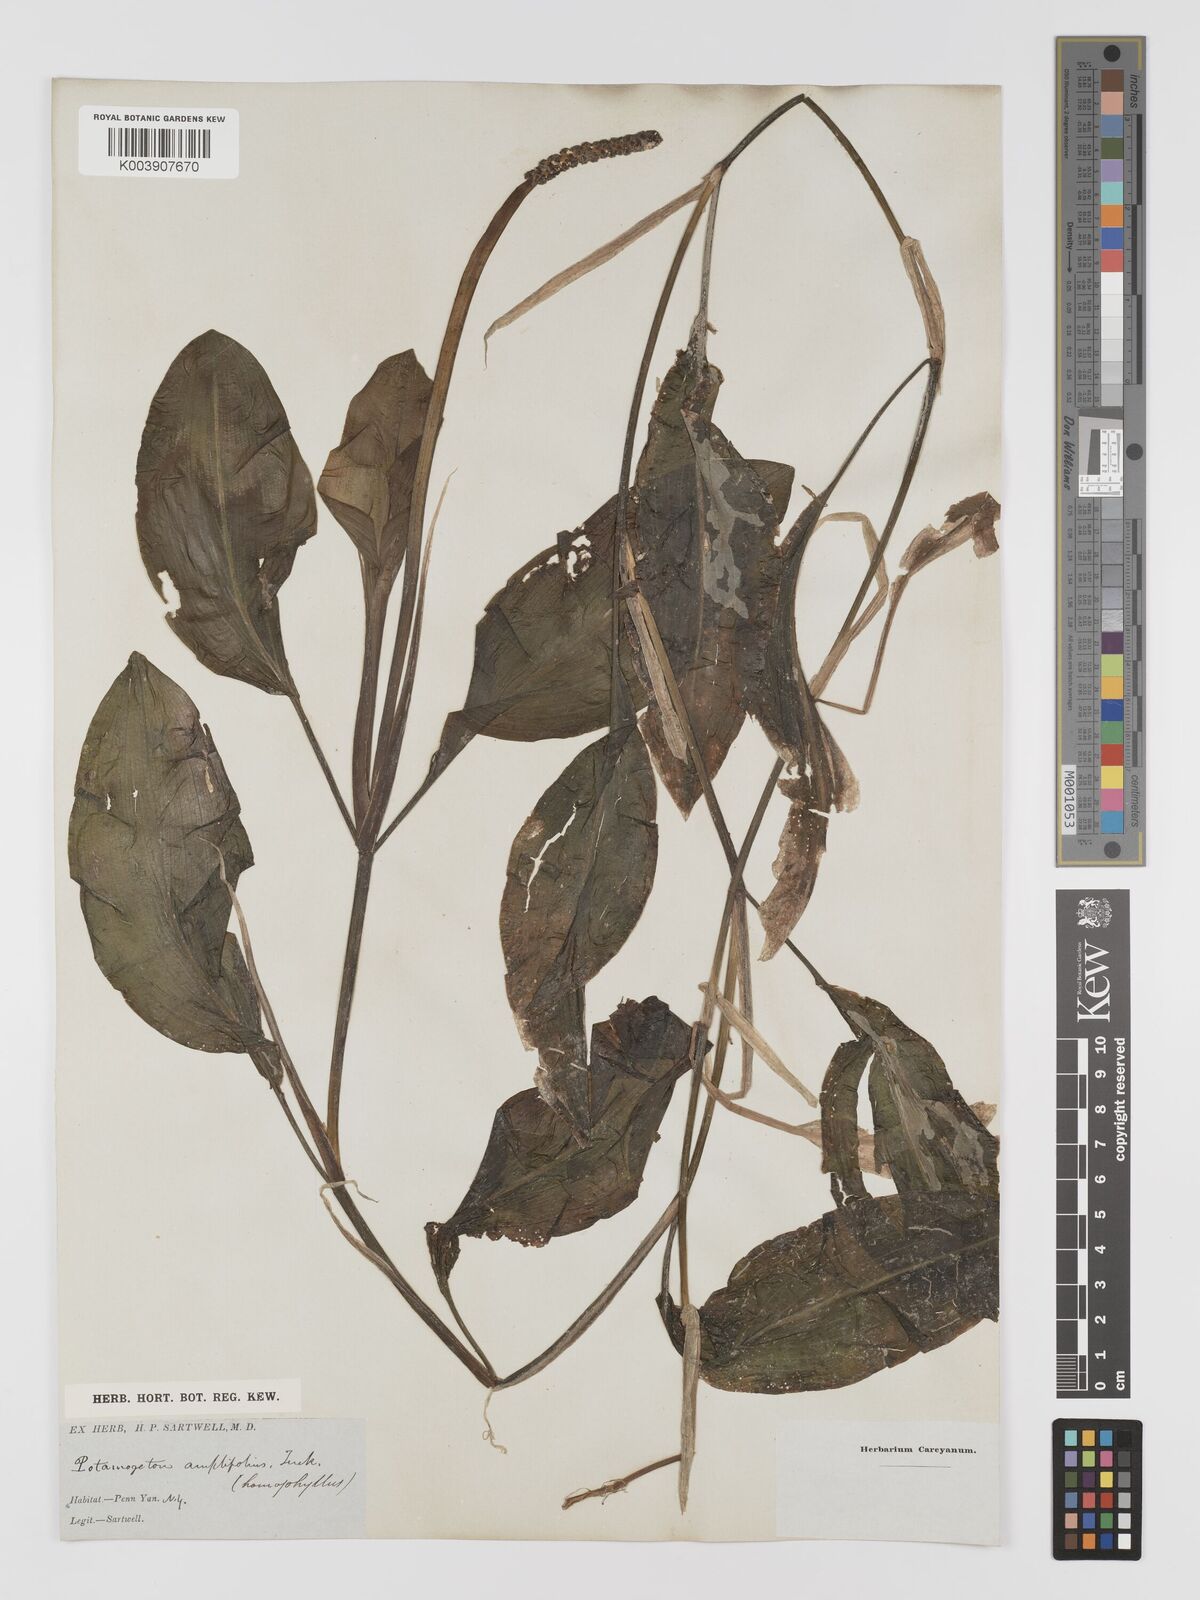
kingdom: Plantae
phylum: Tracheophyta
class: Liliopsida
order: Alismatales
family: Potamogetonaceae
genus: Potamogeton
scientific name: Potamogeton amplifolius
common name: Broad-leaved pondweed
